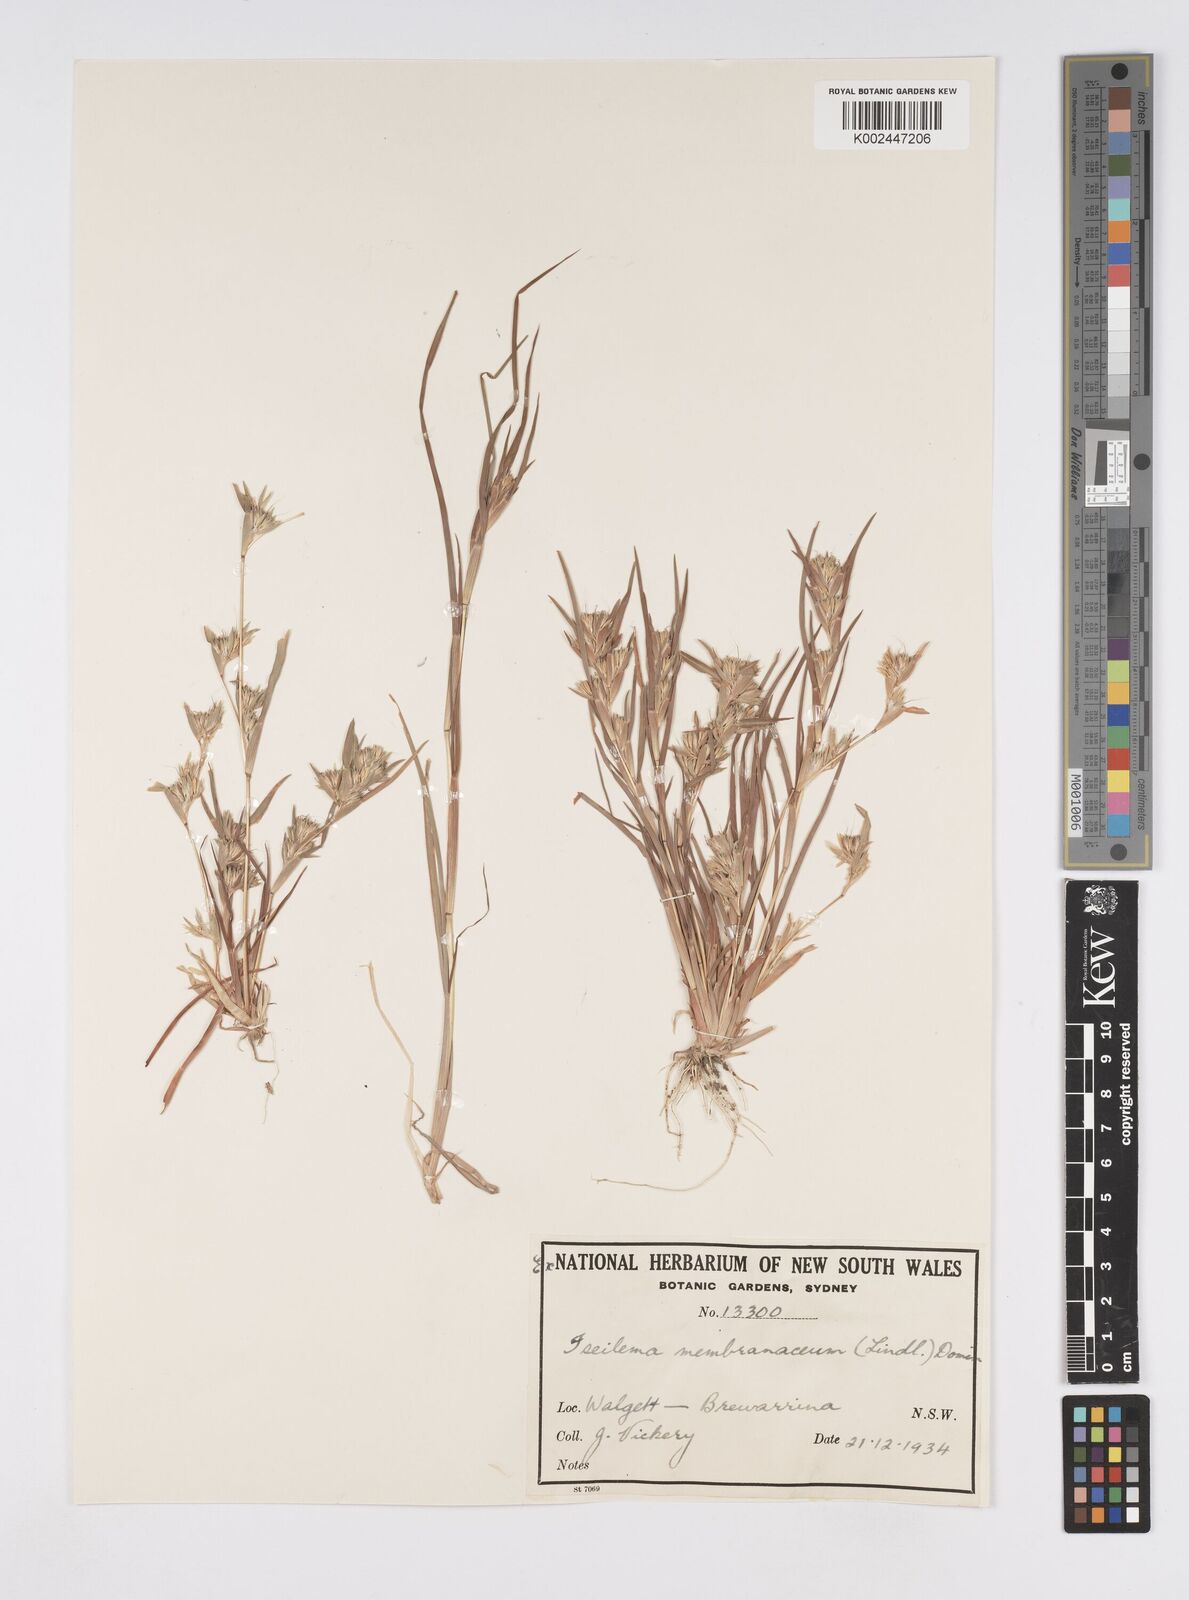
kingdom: Plantae
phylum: Tracheophyta
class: Liliopsida
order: Poales
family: Poaceae
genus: Iseilema
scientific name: Iseilema membranaceum
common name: Small flinders grass
